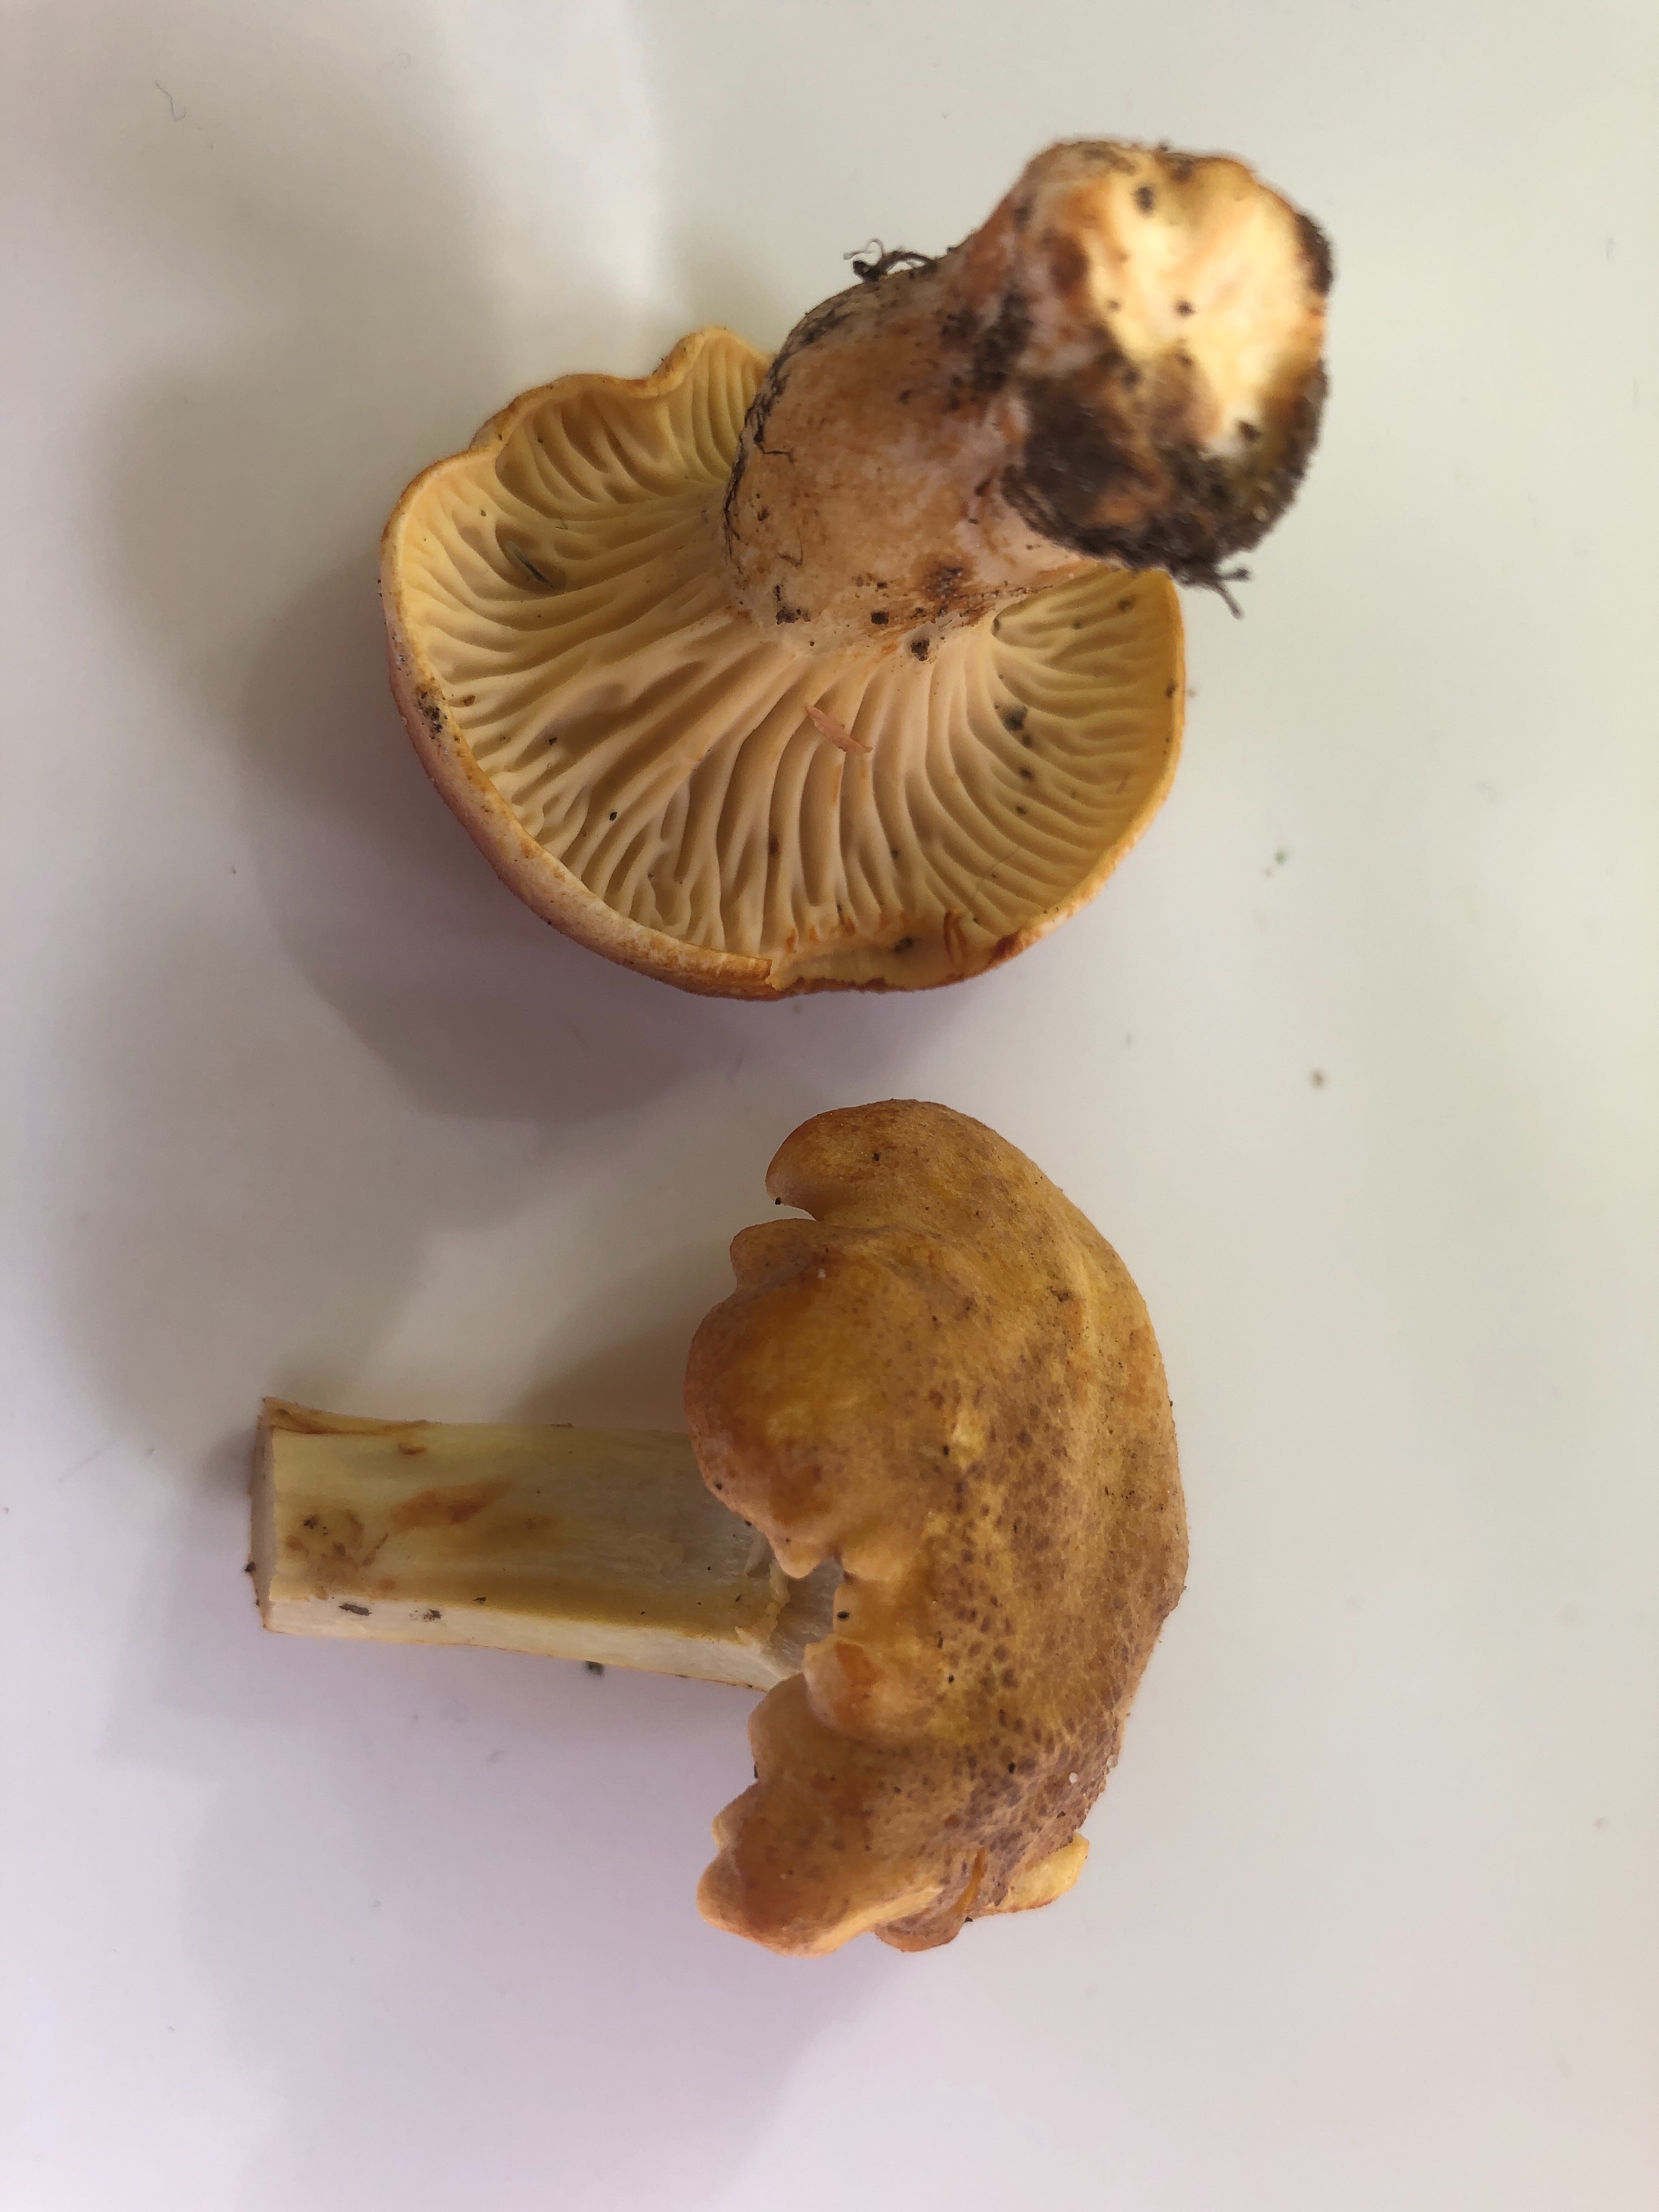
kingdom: Fungi
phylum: Basidiomycota
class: Agaricomycetes
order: Cantharellales
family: Hydnaceae
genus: Cantharellus
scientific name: Cantharellus amethysteus
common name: ametyst-kantarel
